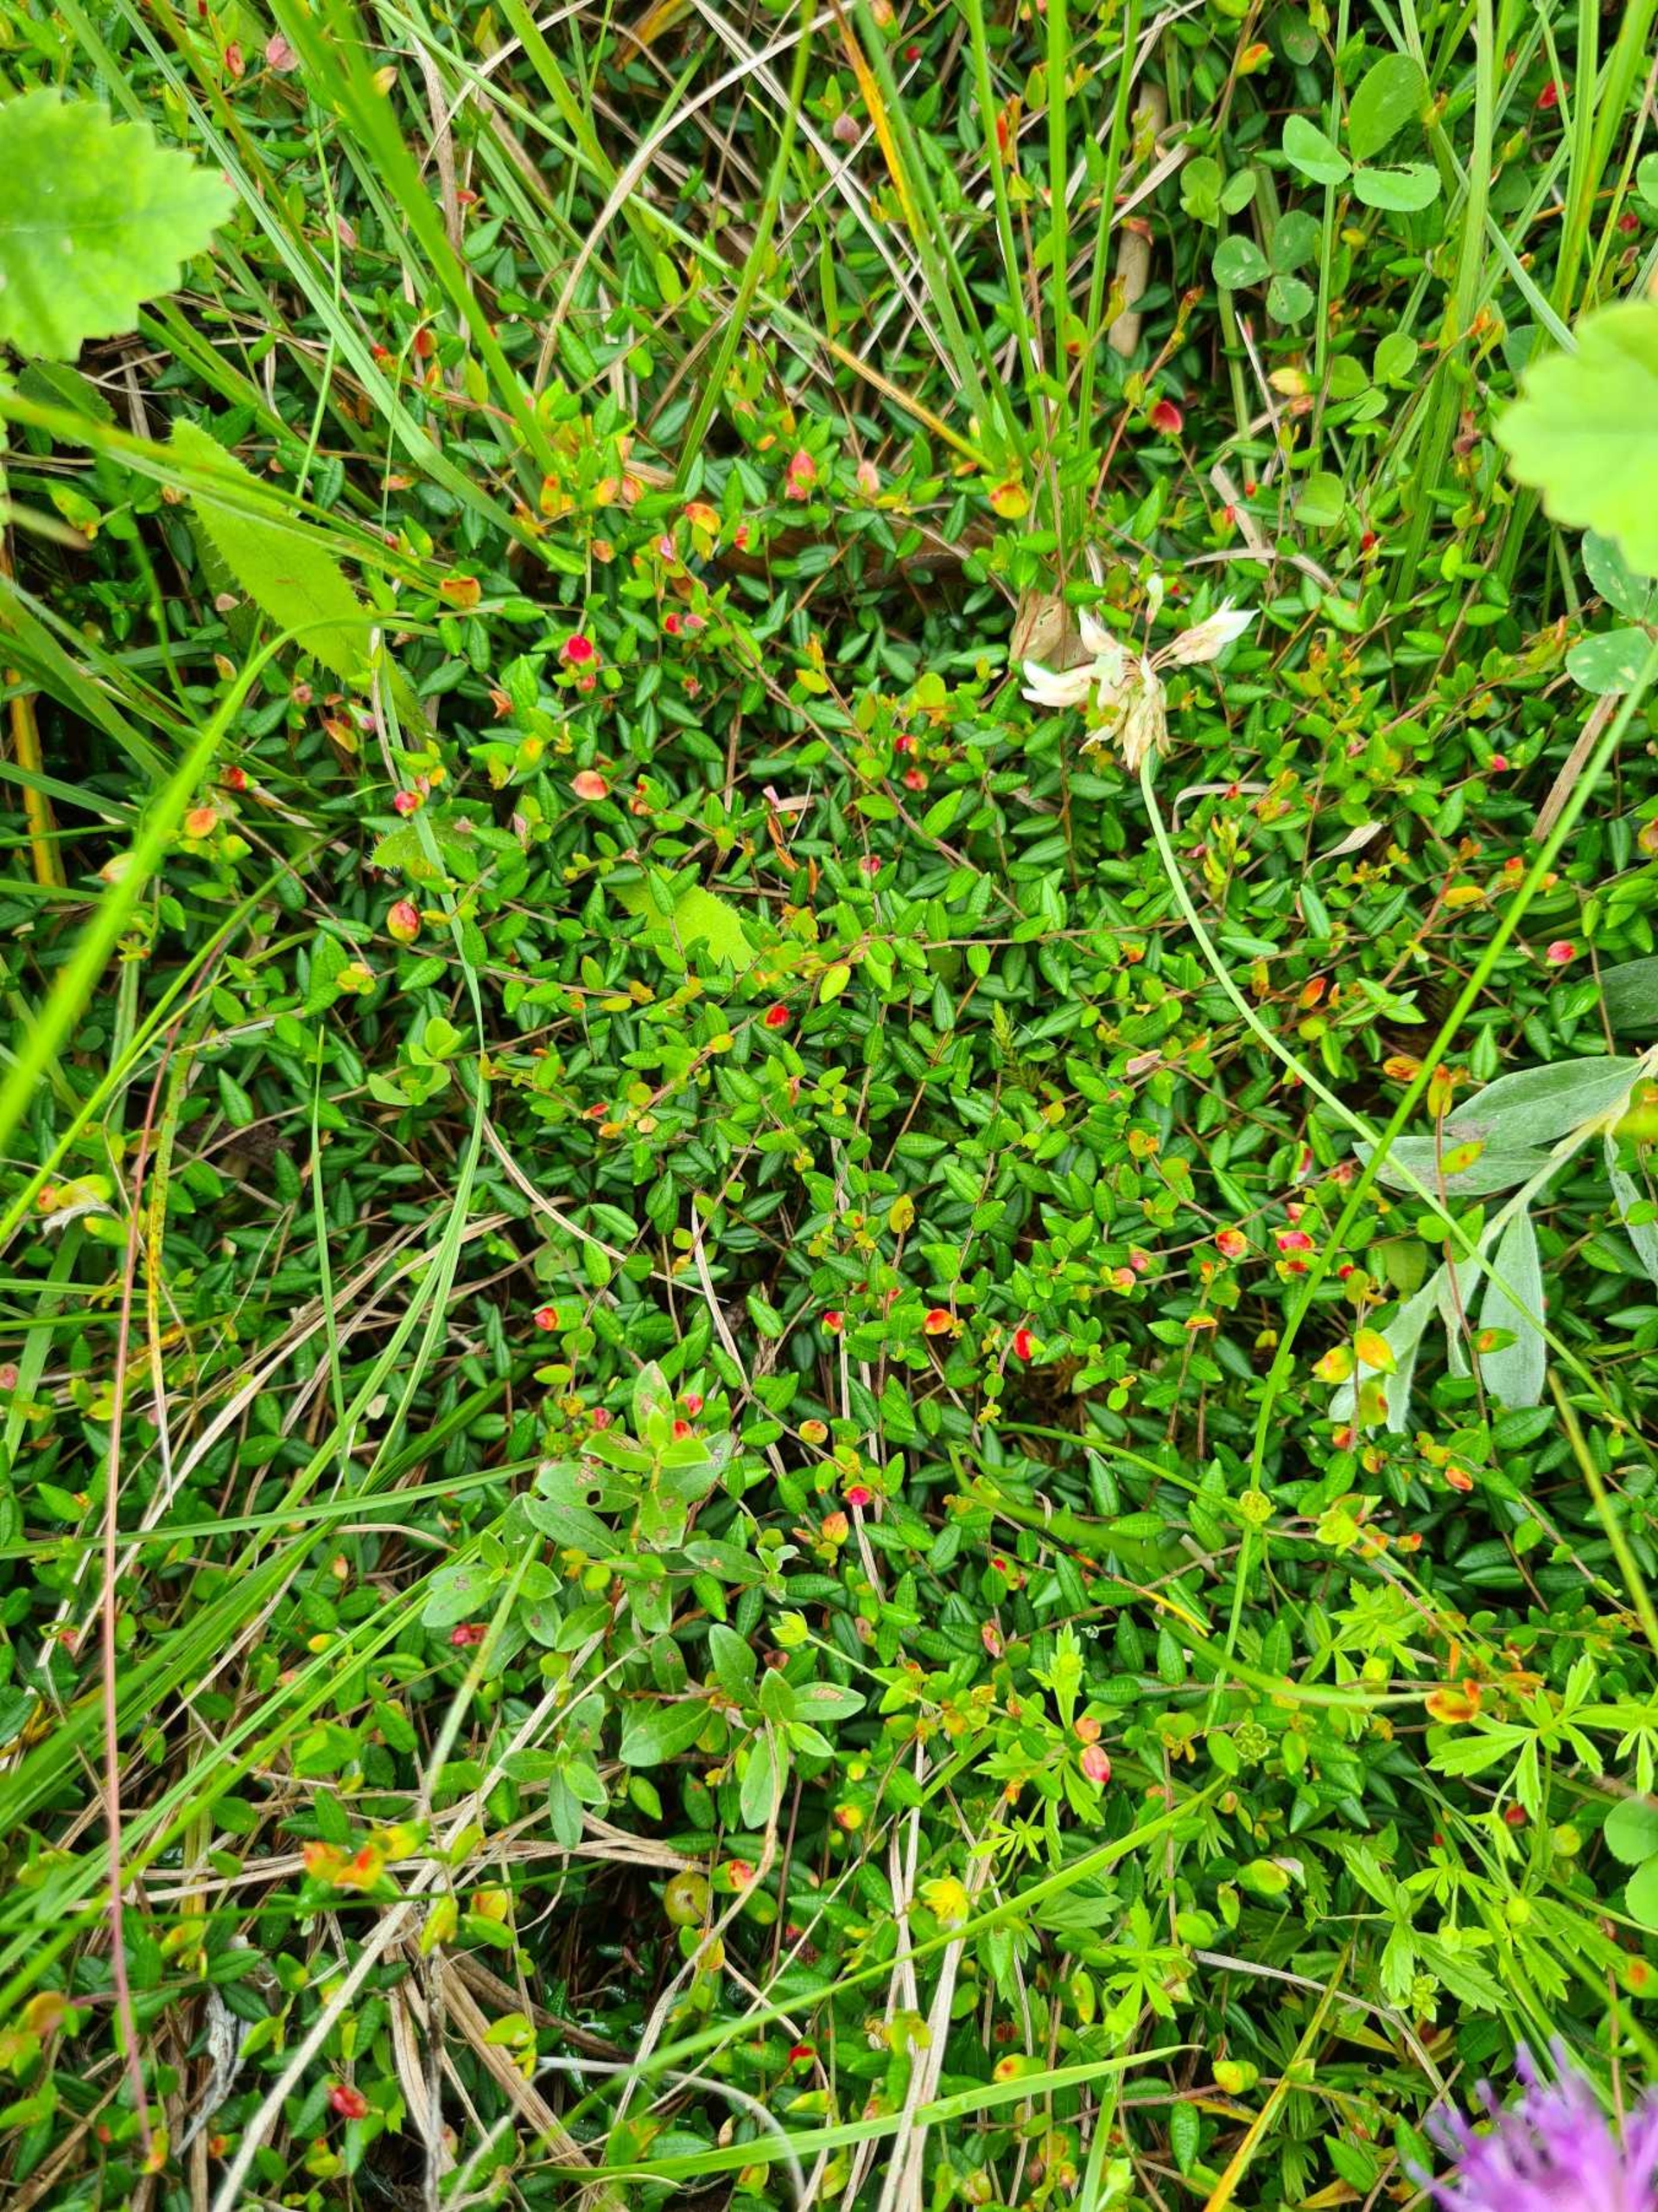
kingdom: Plantae
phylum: Tracheophyta
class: Magnoliopsida
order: Ericales
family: Ericaceae
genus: Vaccinium
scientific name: Vaccinium oxycoccos
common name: Tranebær
